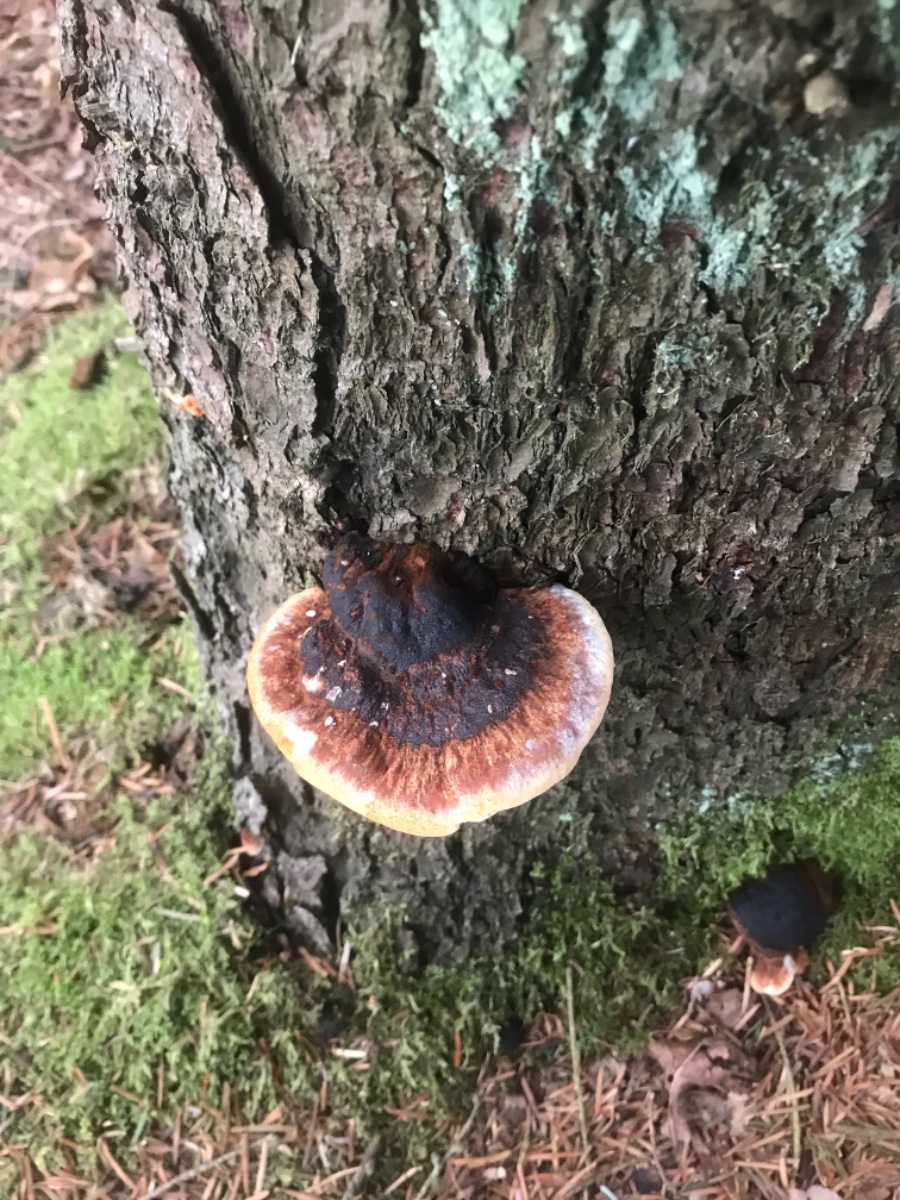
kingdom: Fungi
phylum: Basidiomycota
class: Agaricomycetes
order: Polyporales
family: Ischnodermataceae
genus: Ischnoderma
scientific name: Ischnoderma benzoinum
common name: gran-tjæreporesvamp
